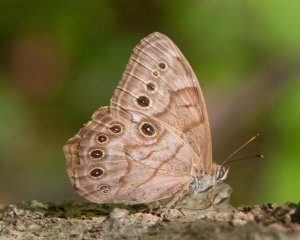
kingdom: Animalia
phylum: Arthropoda
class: Insecta
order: Lepidoptera
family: Nymphalidae
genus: Lethe
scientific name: Lethe anthedon
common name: Northern Pearly-Eye
